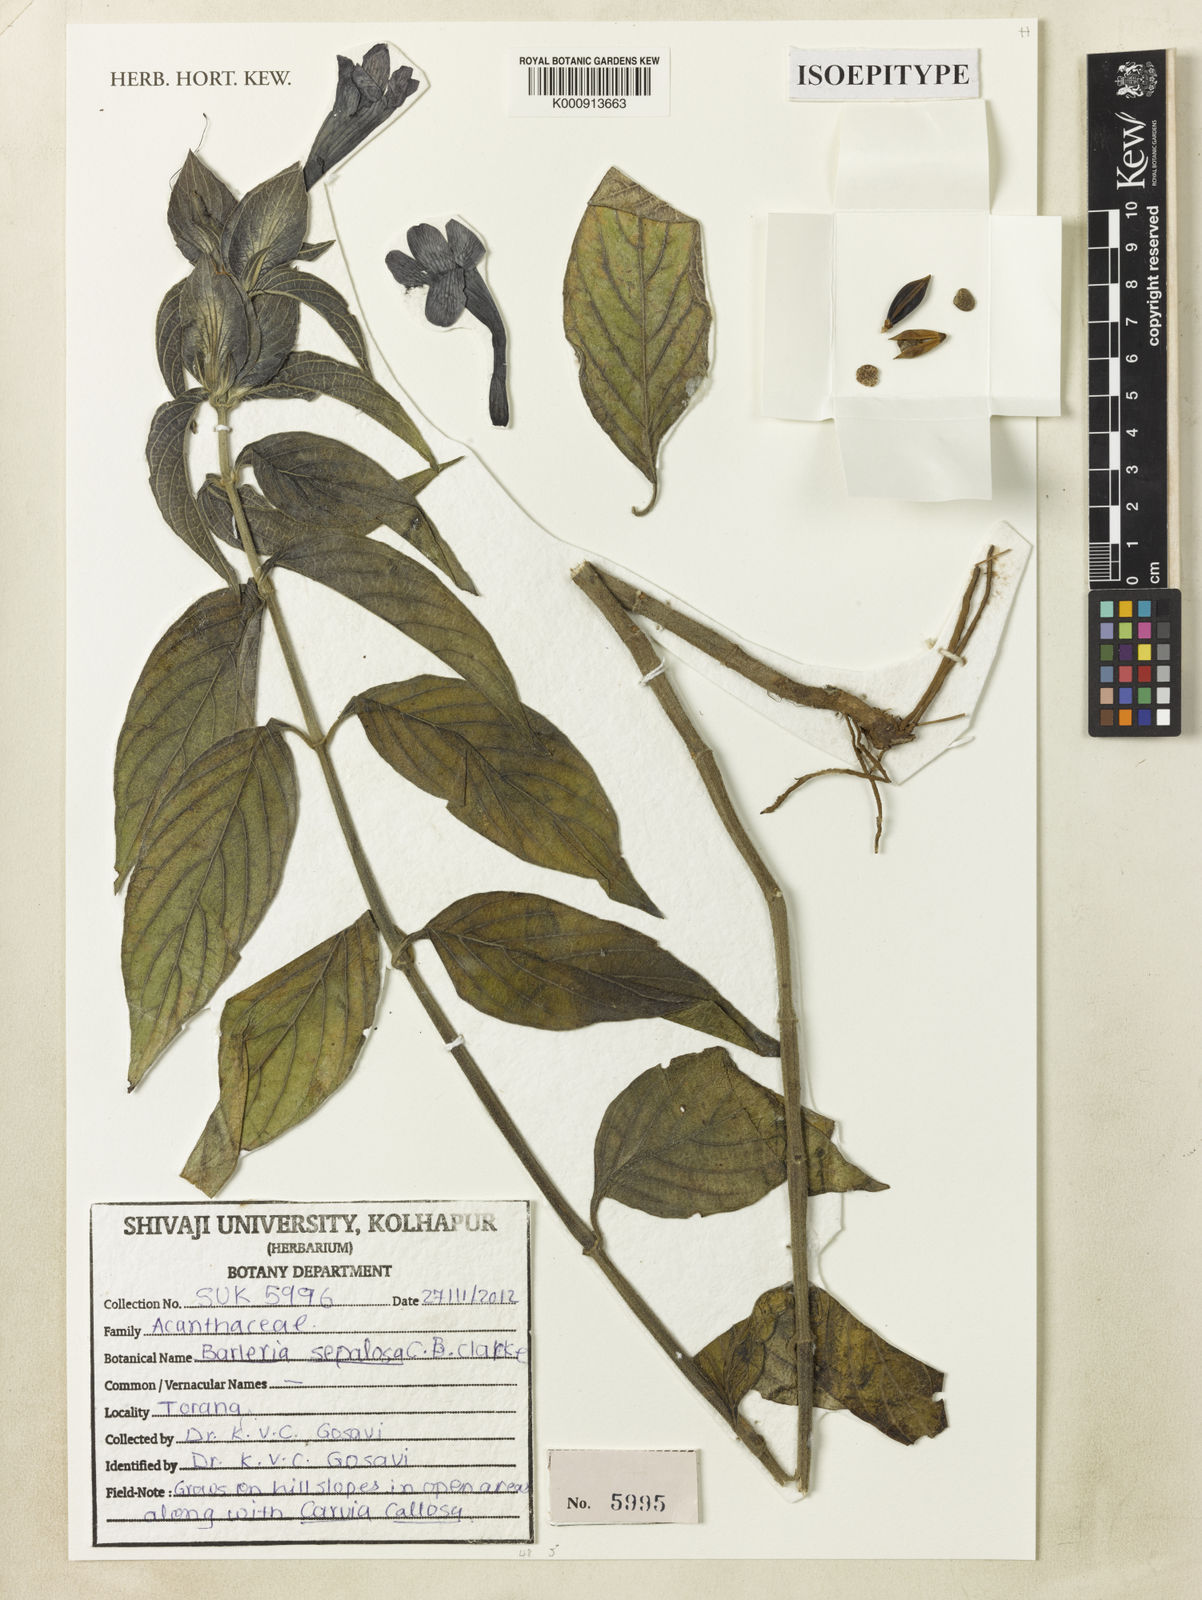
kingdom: Plantae
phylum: Tracheophyta
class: Magnoliopsida
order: Lamiales
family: Acanthaceae
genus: Barleria
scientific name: Barleria lawii
